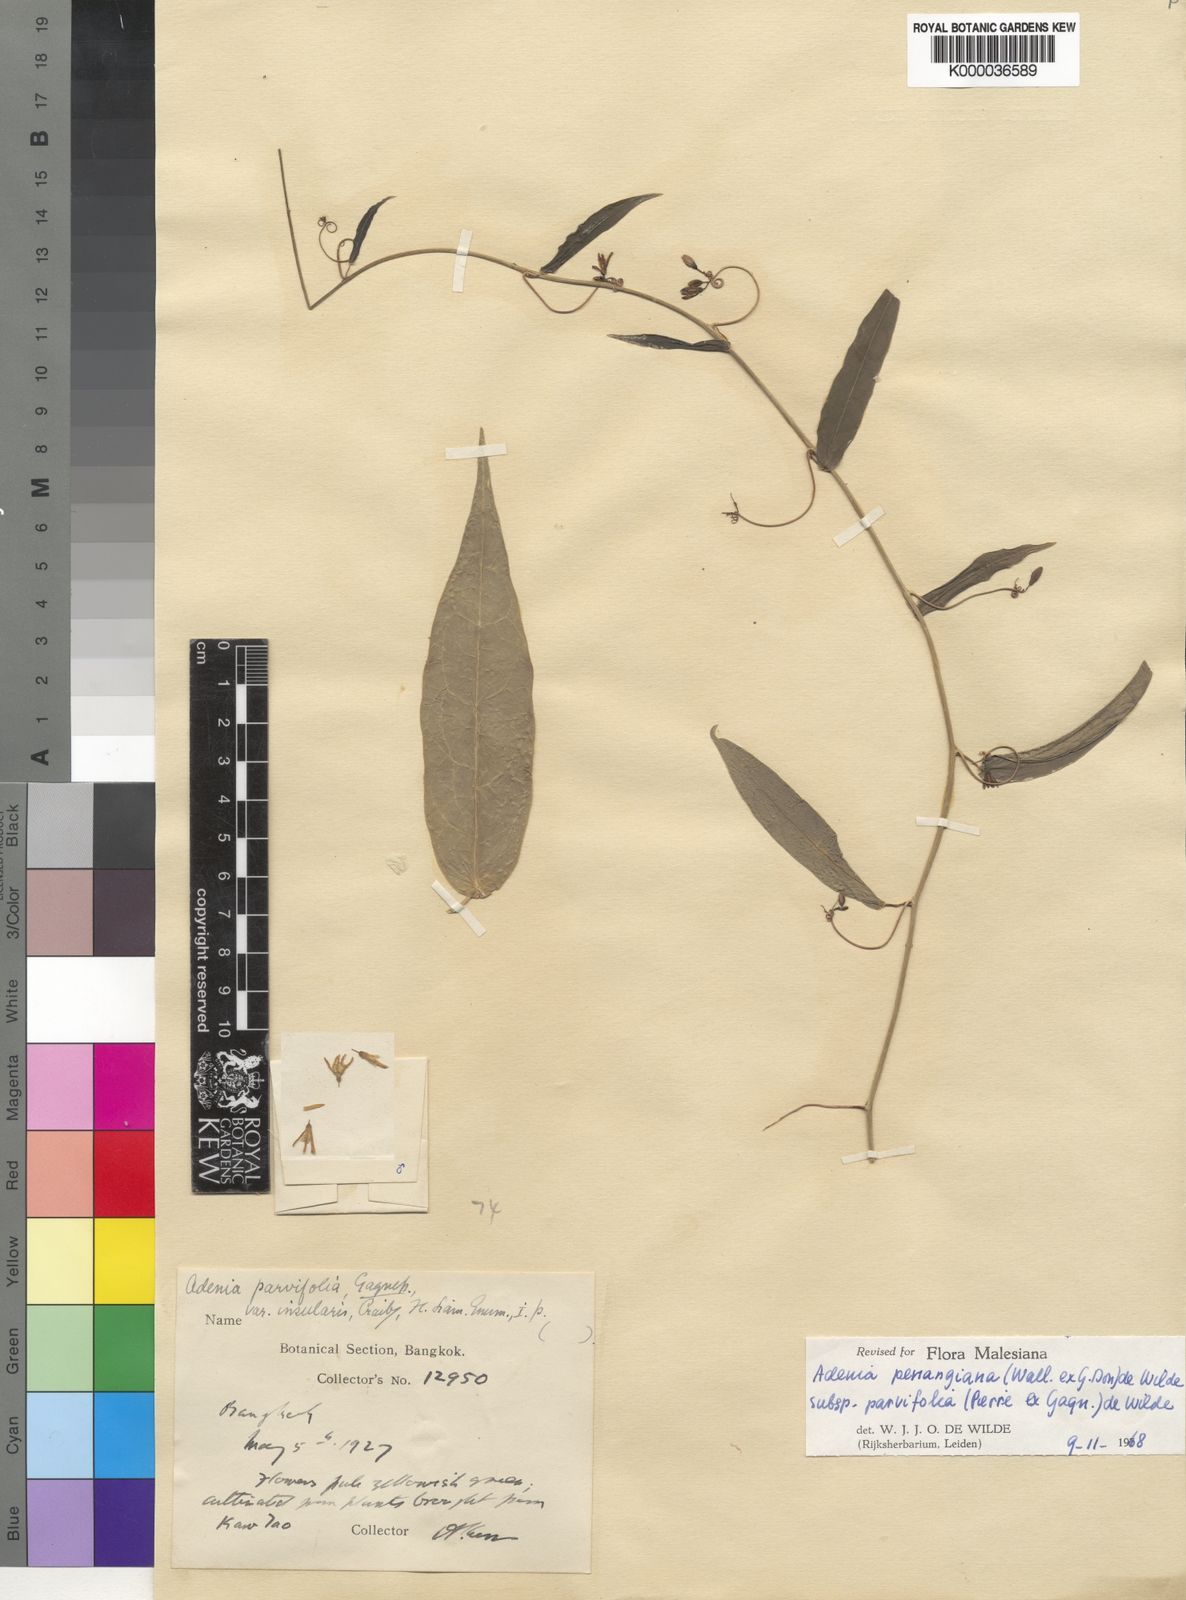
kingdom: Plantae
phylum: Tracheophyta
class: Magnoliopsida
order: Malpighiales
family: Passifloraceae
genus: Adenia
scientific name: Adenia penangiana
